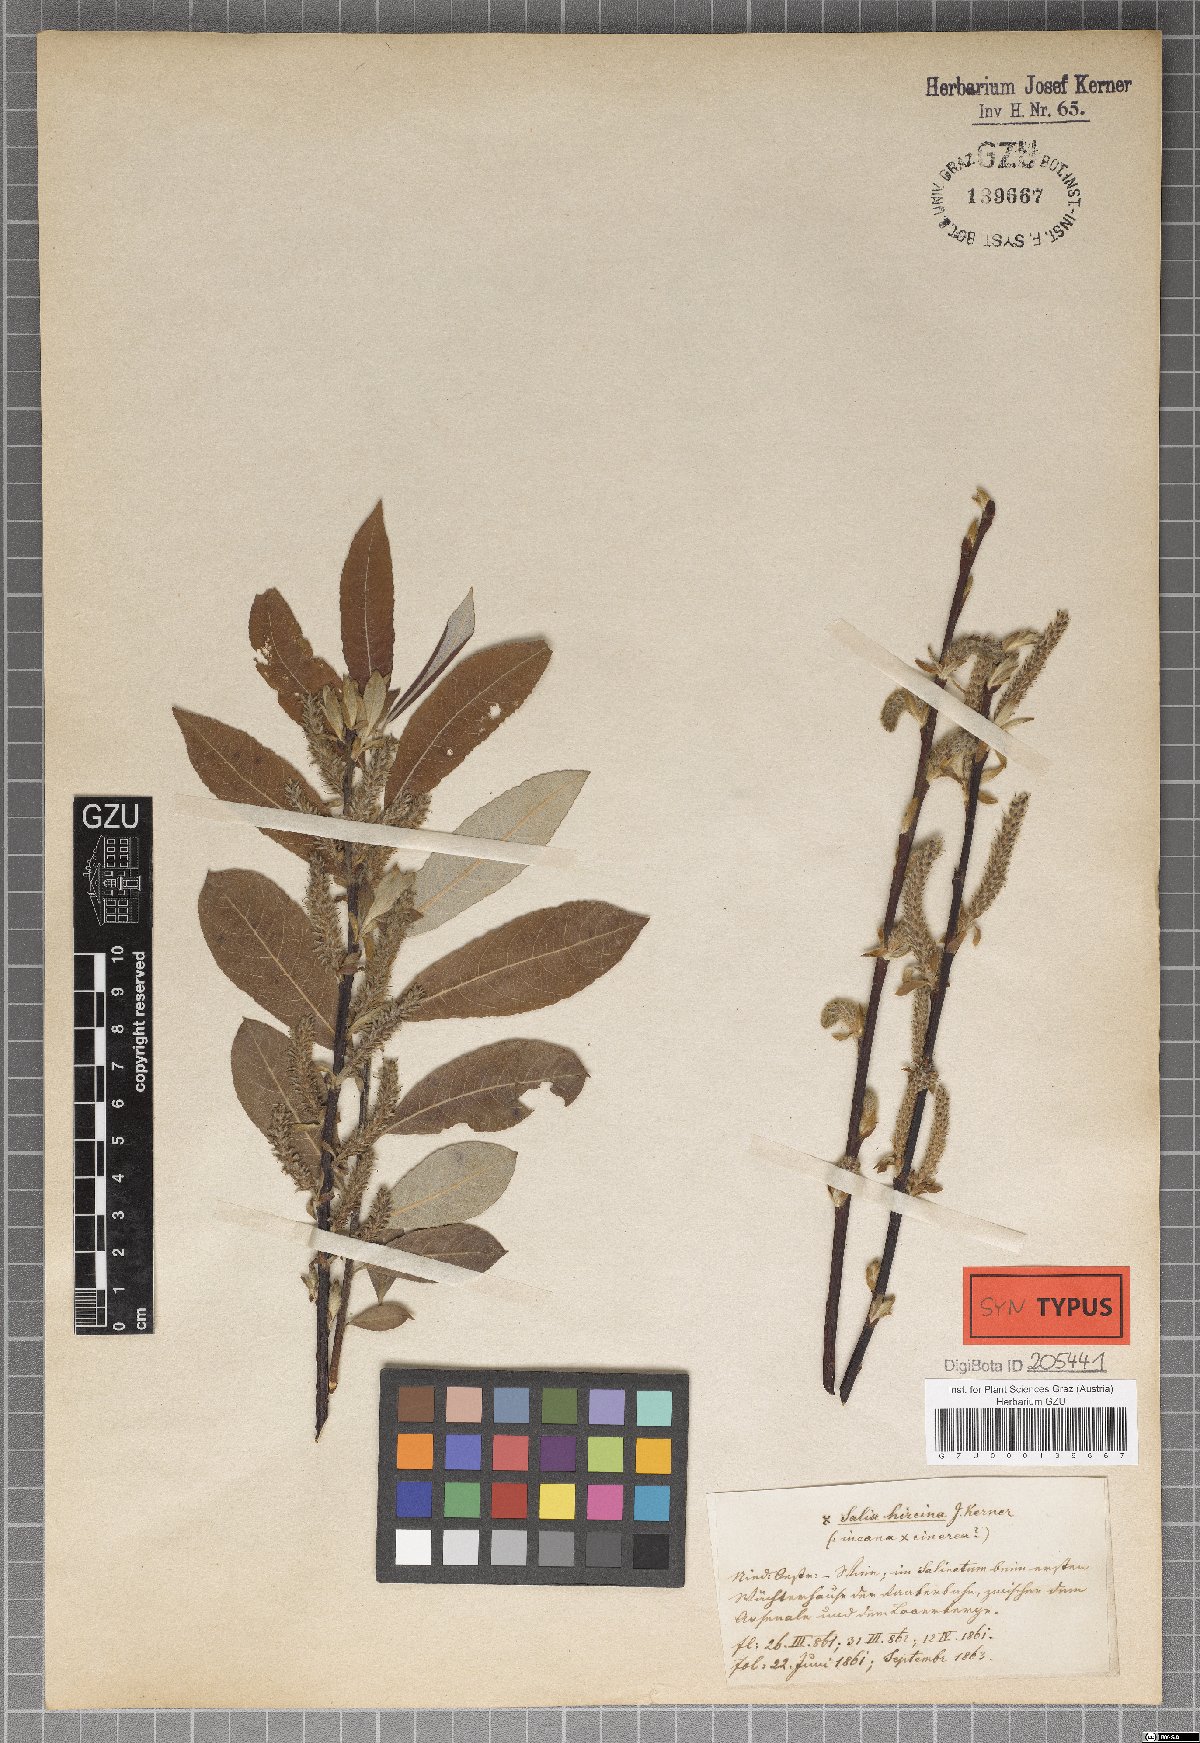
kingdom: Plantae
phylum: Tracheophyta
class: Magnoliopsida
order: Malpighiales
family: Salicaceae
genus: Salix
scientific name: Salix eleagnos
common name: Elaeagnus willow
